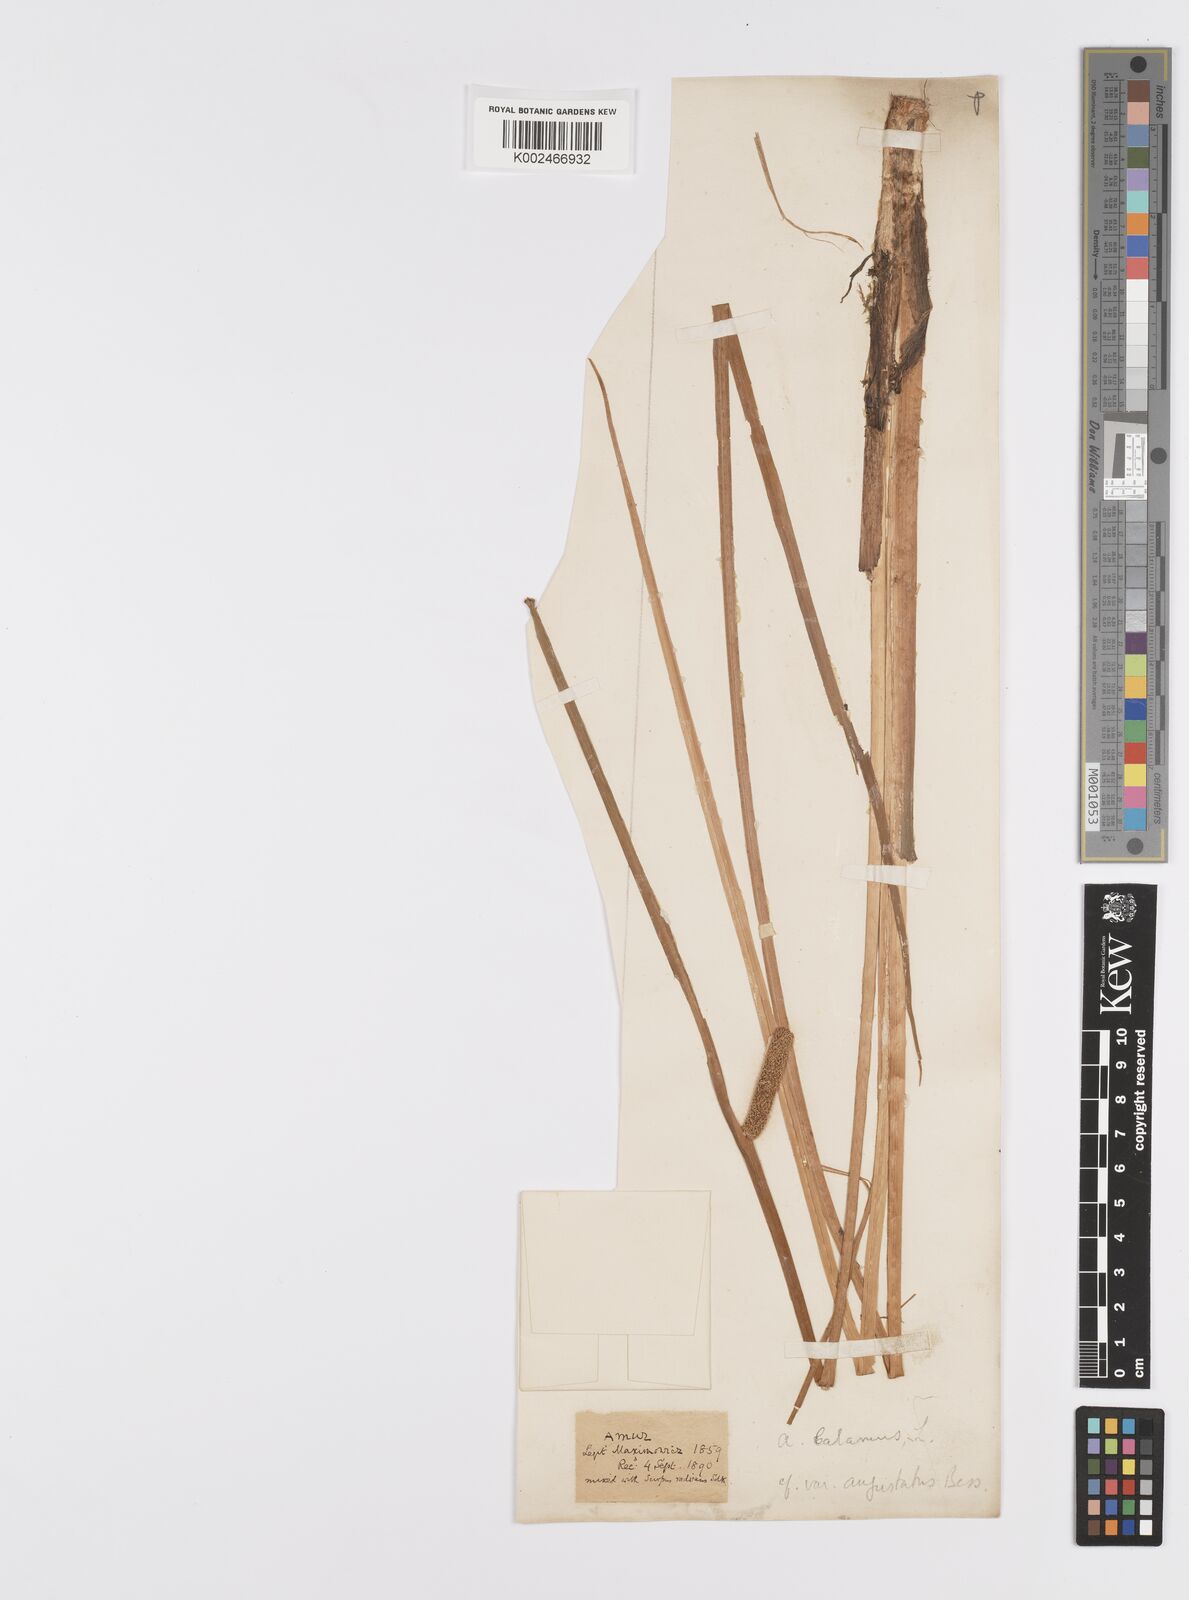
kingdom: Plantae
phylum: Tracheophyta
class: Liliopsida
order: Acorales
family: Acoraceae
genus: Acorus
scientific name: Acorus calamus
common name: Sweet-flag
